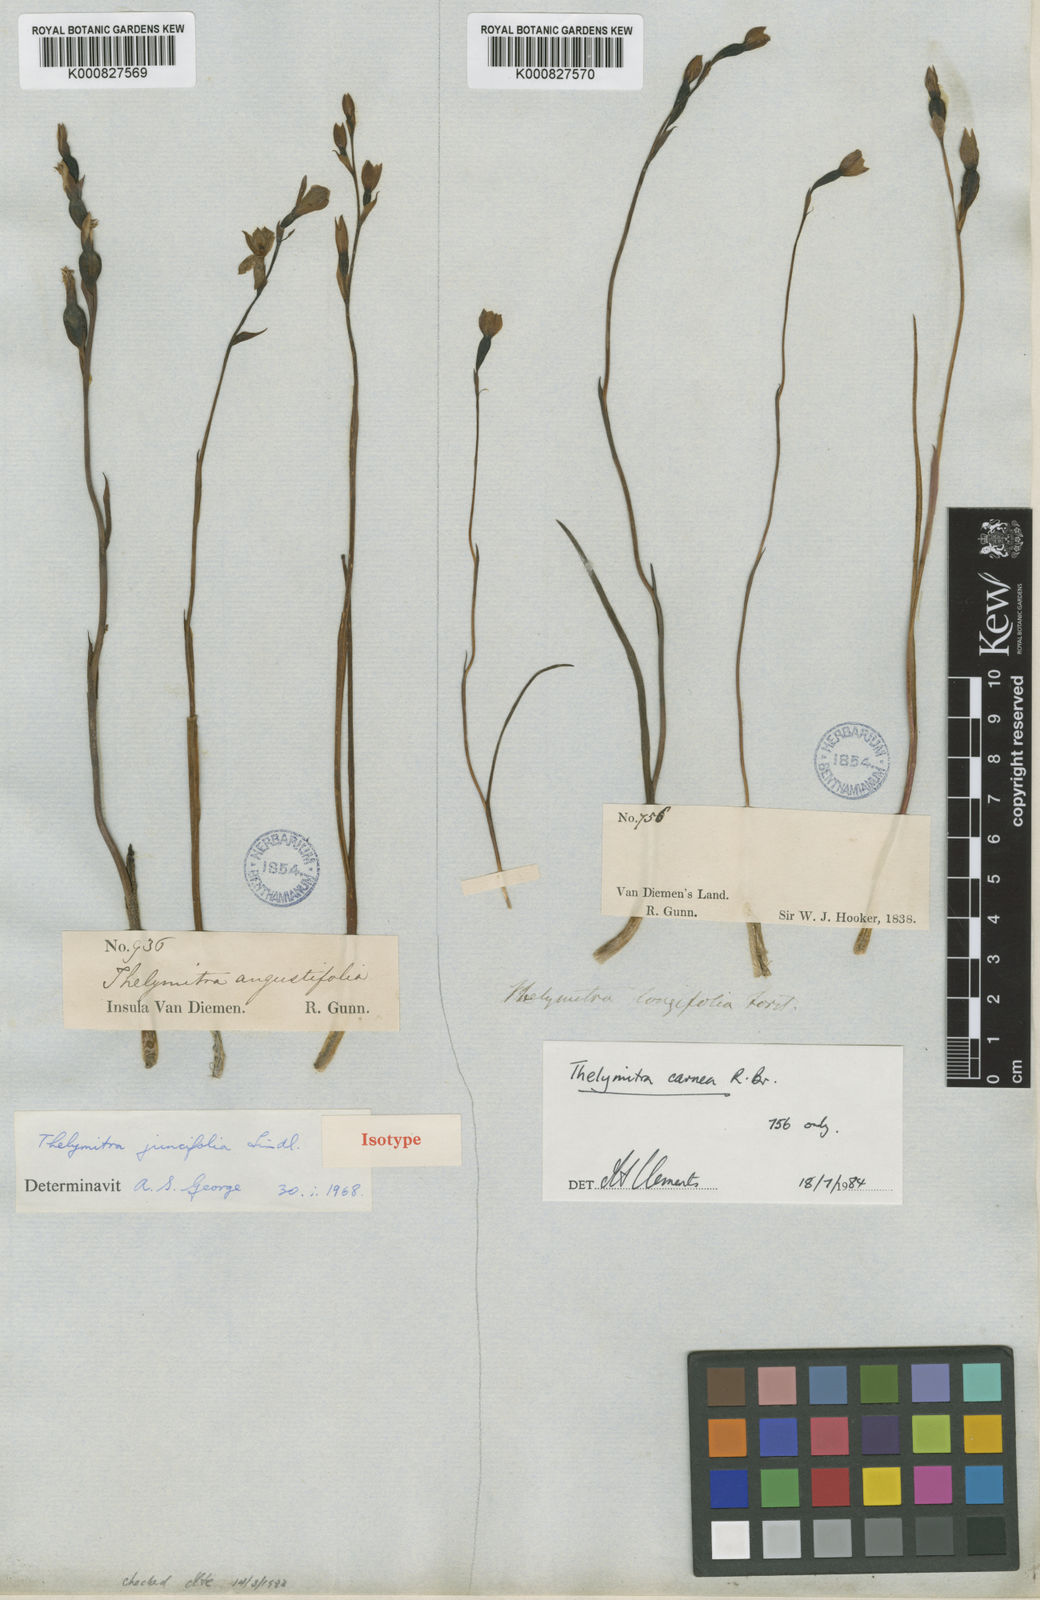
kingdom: Plantae
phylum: Tracheophyta
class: Liliopsida
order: Asparagales
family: Orchidaceae
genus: Thelymitra
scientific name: Thelymitra ixioides
